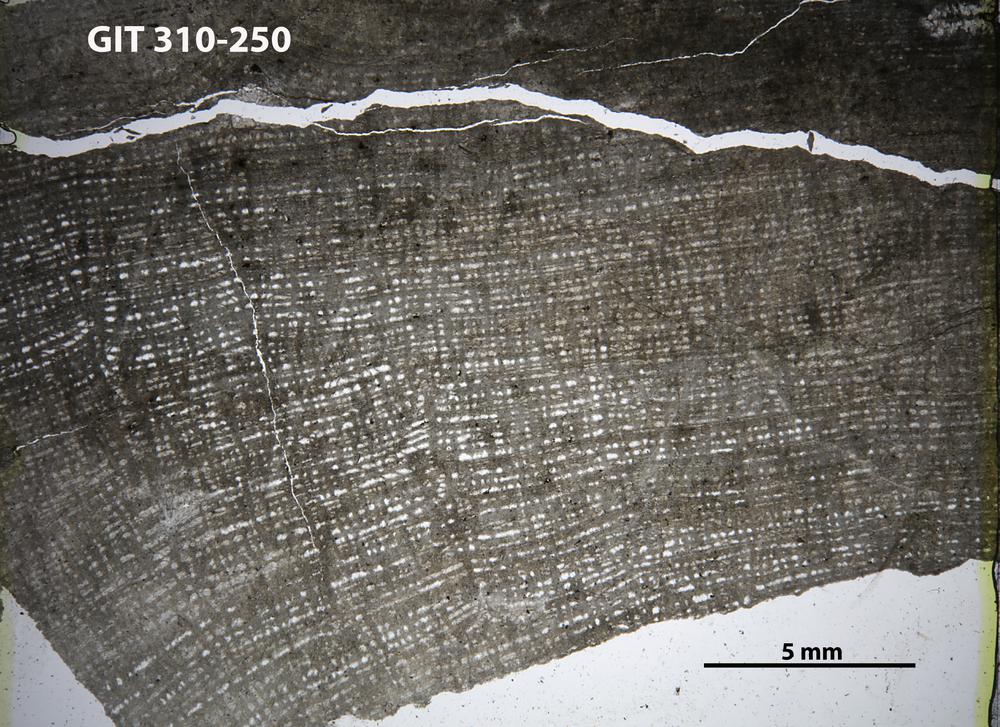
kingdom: Animalia
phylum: Porifera
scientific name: Porifera
